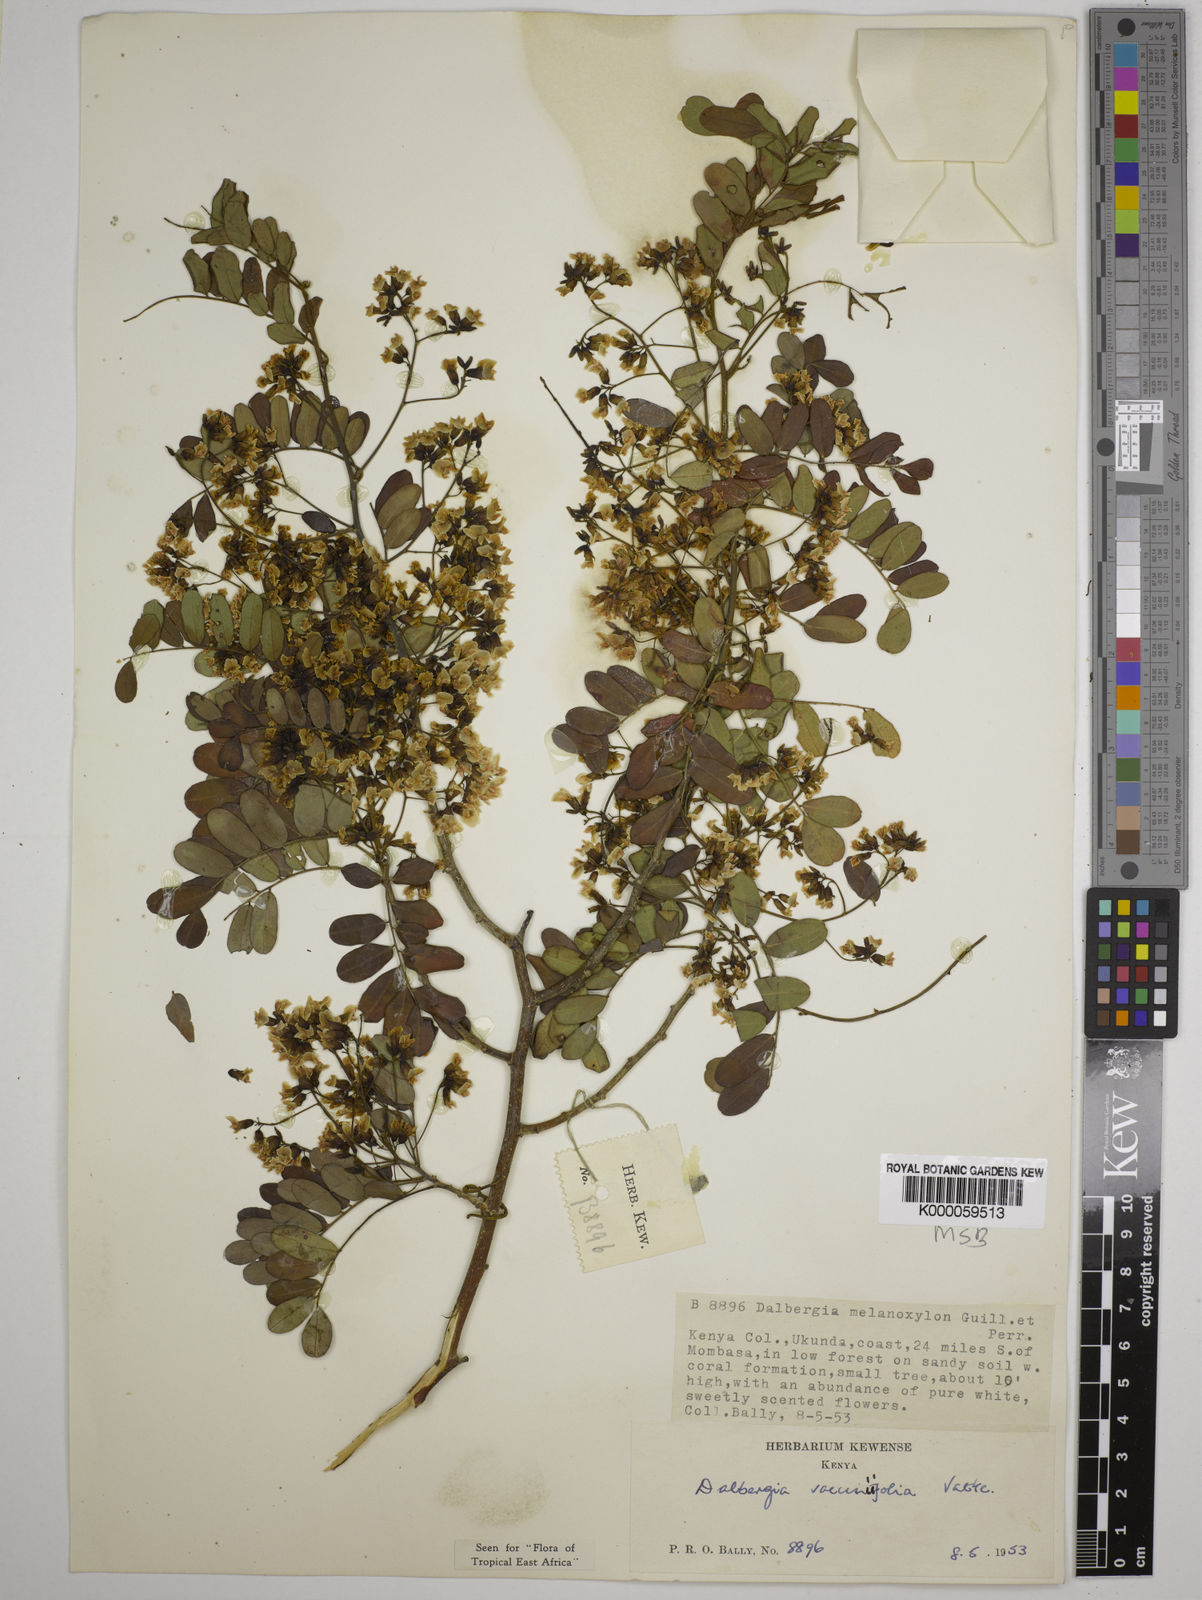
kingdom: Plantae
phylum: Tracheophyta
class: Magnoliopsida
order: Fabales
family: Fabaceae
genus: Dalbergia
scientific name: Dalbergia vacciniifolia
